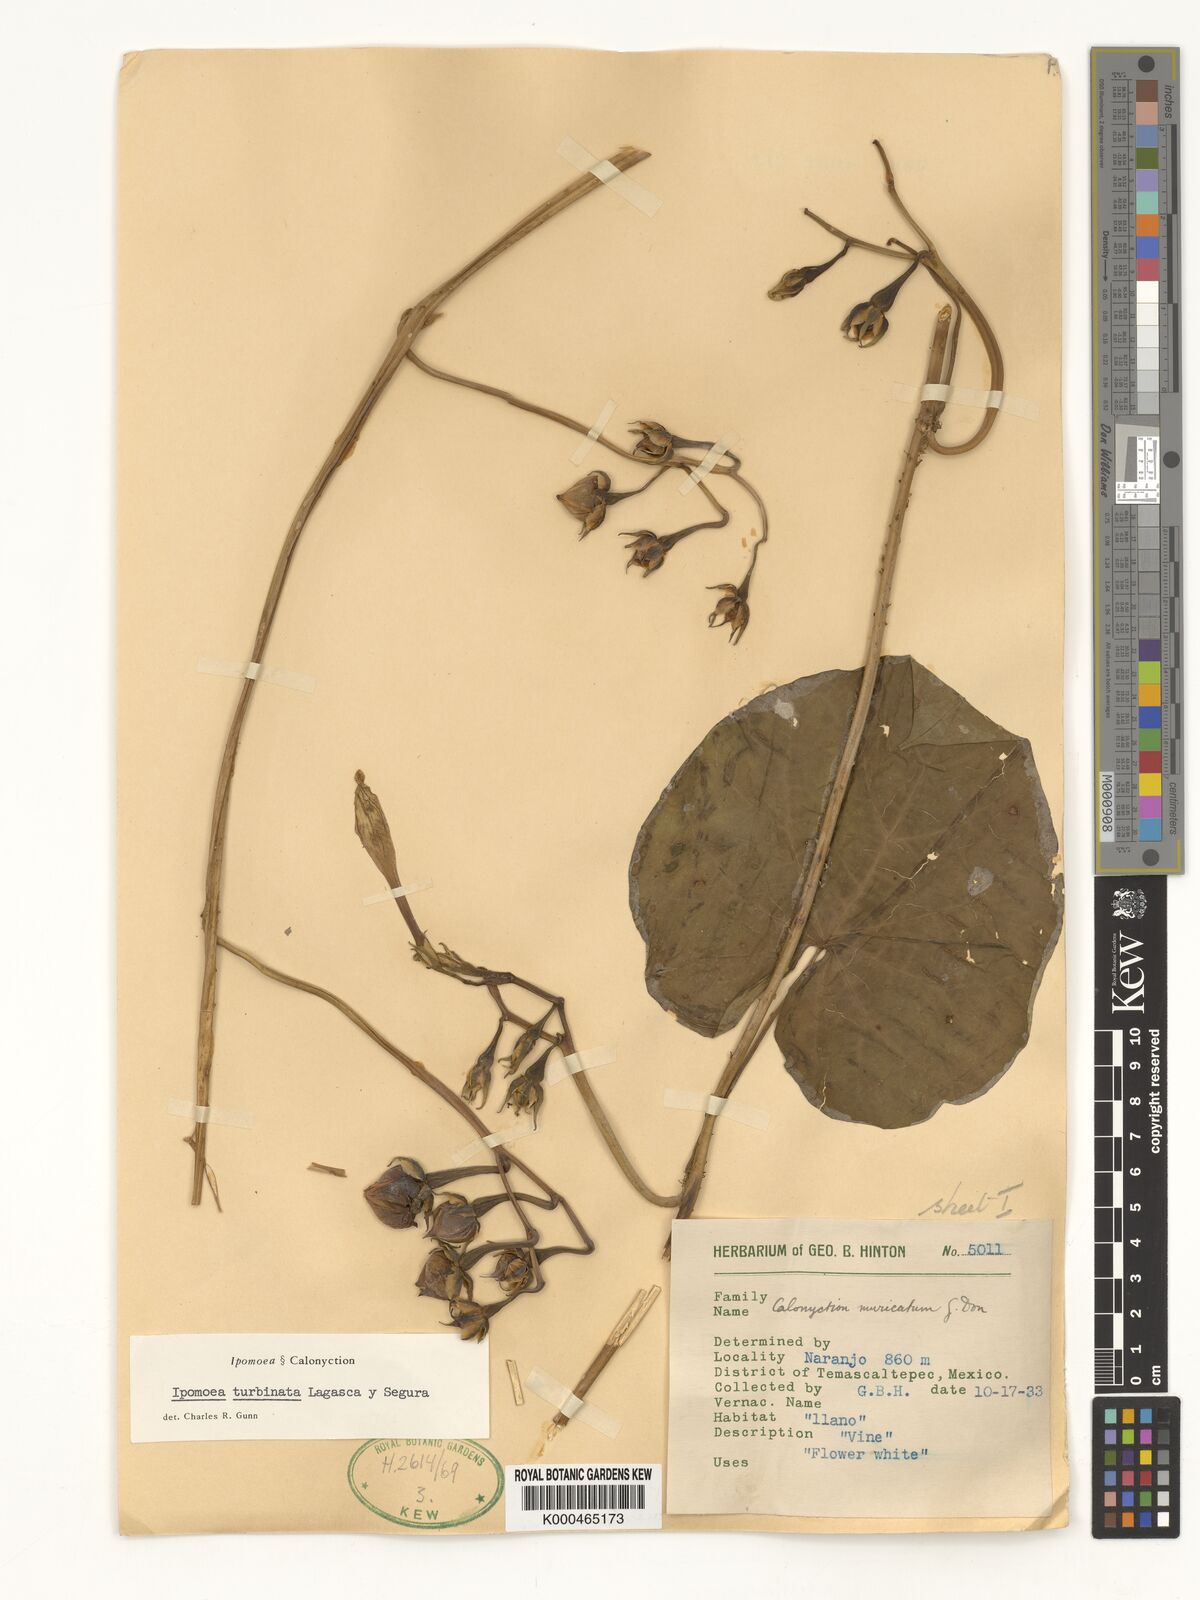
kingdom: Plantae
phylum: Tracheophyta
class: Magnoliopsida
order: Solanales
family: Convolvulaceae
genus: Ipomoea
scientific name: Ipomoea muricata
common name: Lilac-bell
